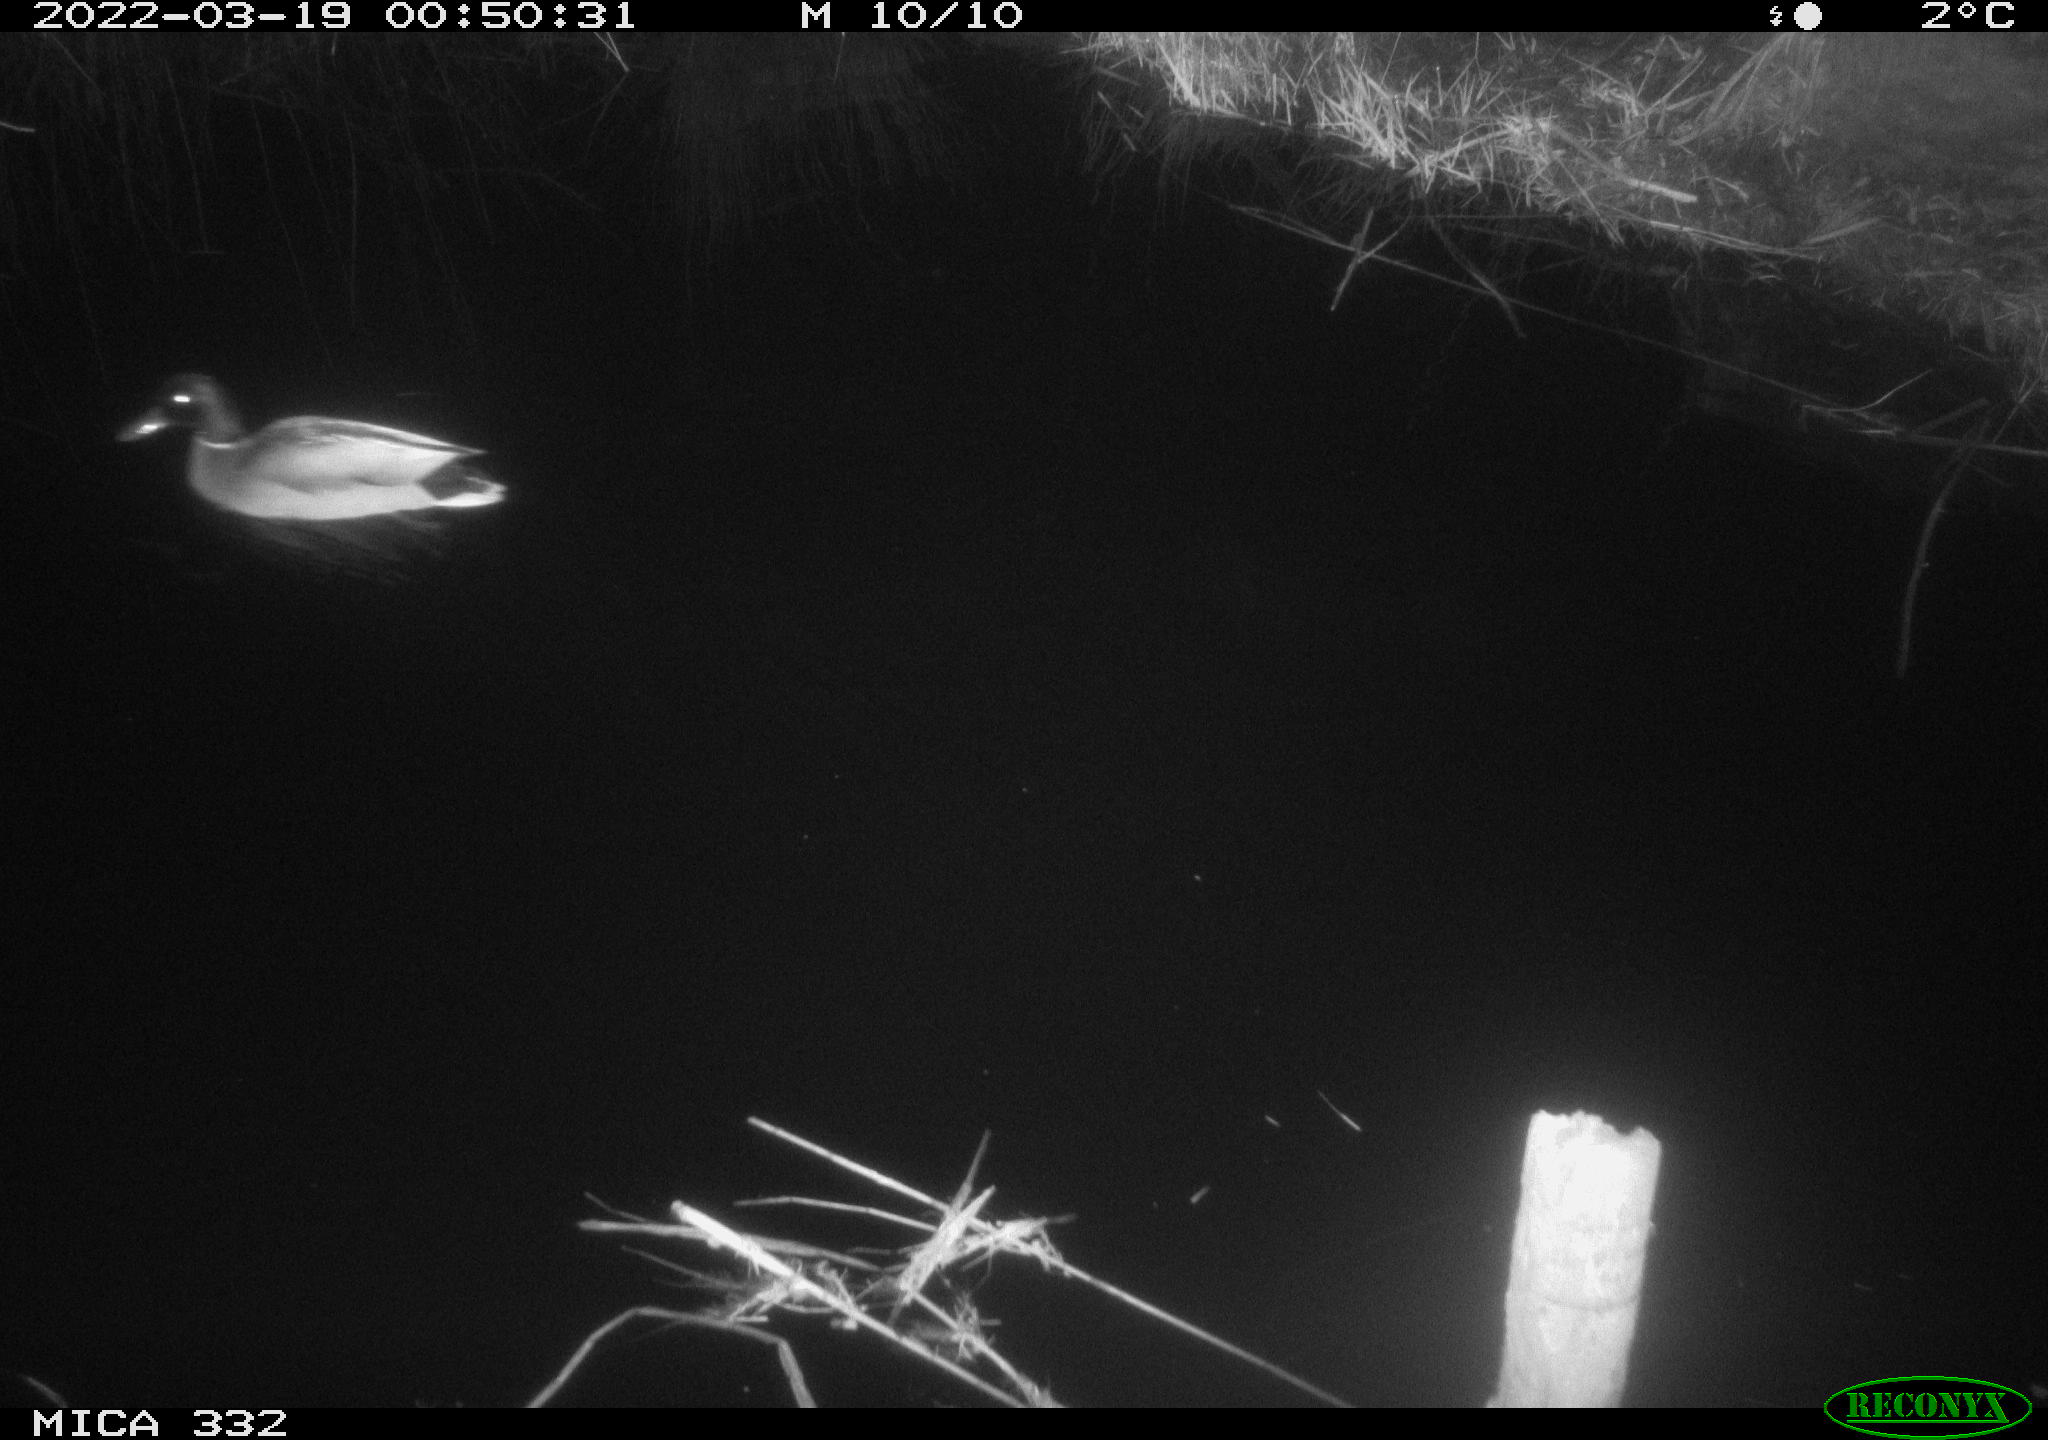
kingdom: Animalia
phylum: Chordata
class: Aves
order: Anseriformes
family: Anatidae
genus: Anas
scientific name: Anas platyrhynchos
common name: Mallard
